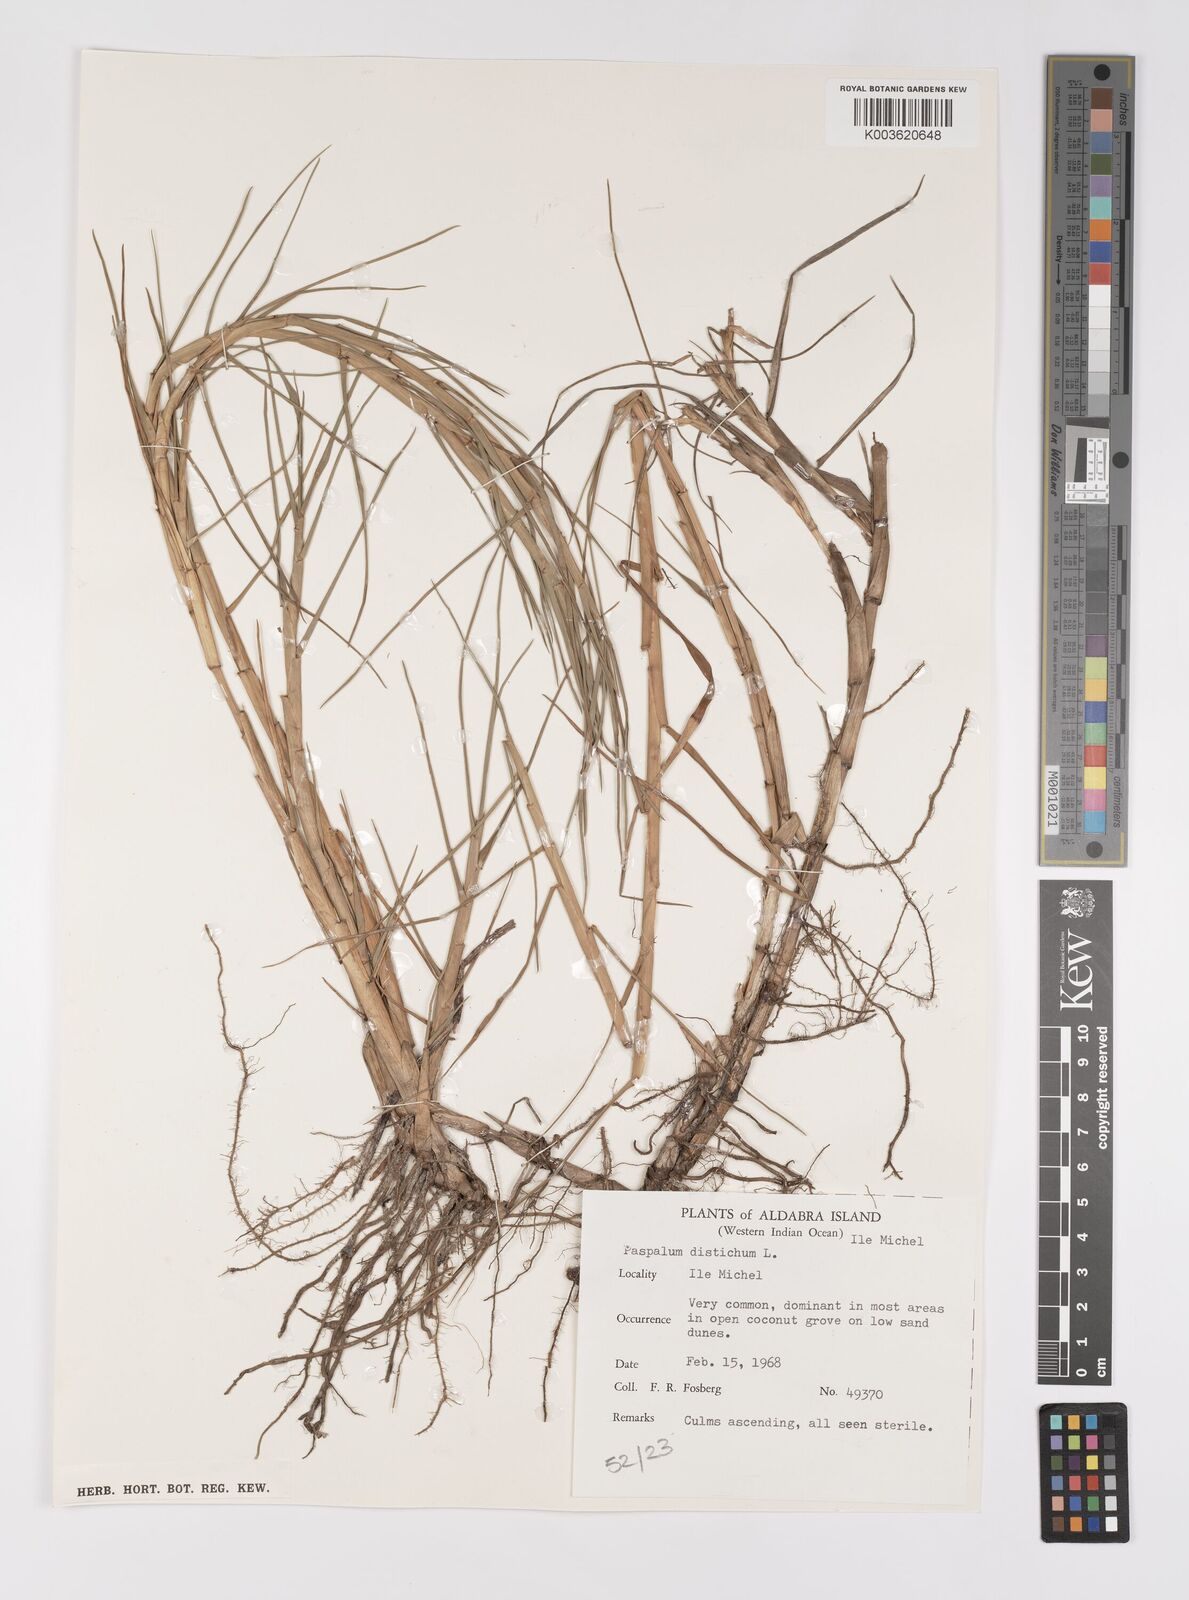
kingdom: Plantae
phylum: Tracheophyta
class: Liliopsida
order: Poales
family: Poaceae
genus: Paspalum
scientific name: Paspalum vaginatum
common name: Seashore paspalum
